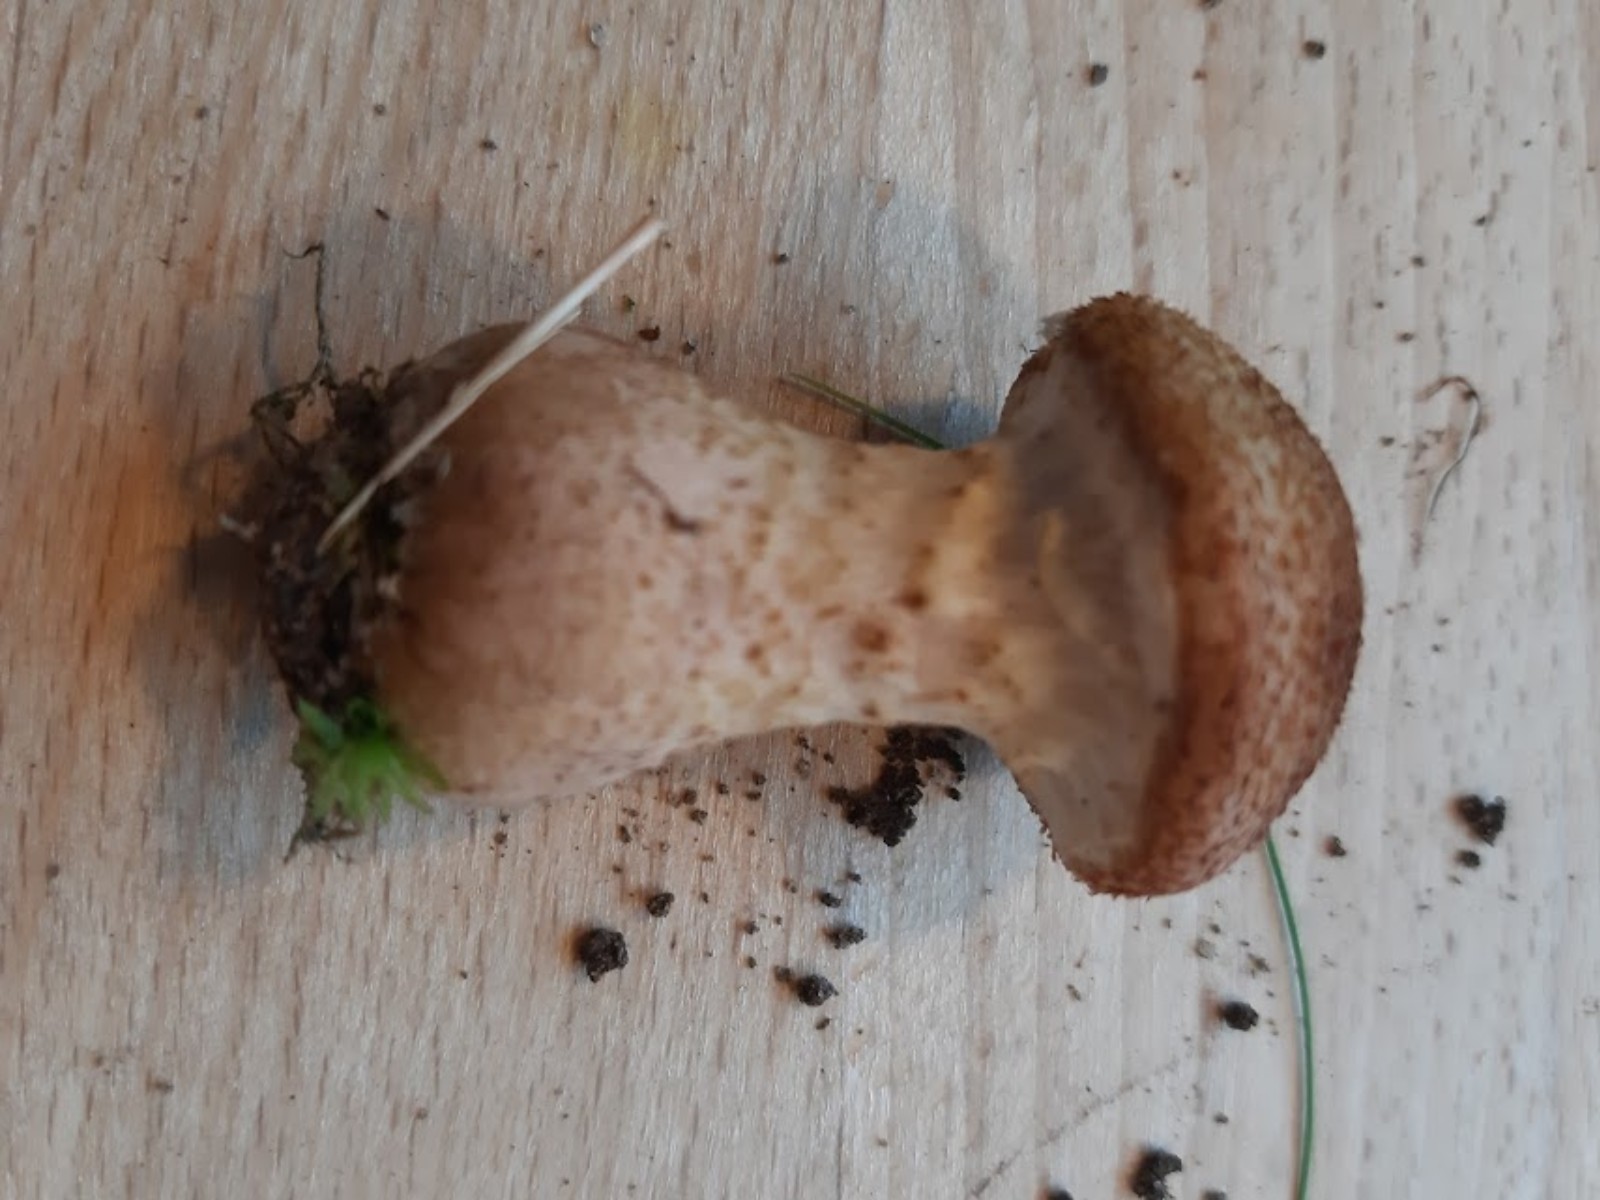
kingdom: Fungi
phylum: Basidiomycota
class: Agaricomycetes
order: Agaricales
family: Physalacriaceae
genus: Armillaria
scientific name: Armillaria lutea
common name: køllestokket honningsvamp
